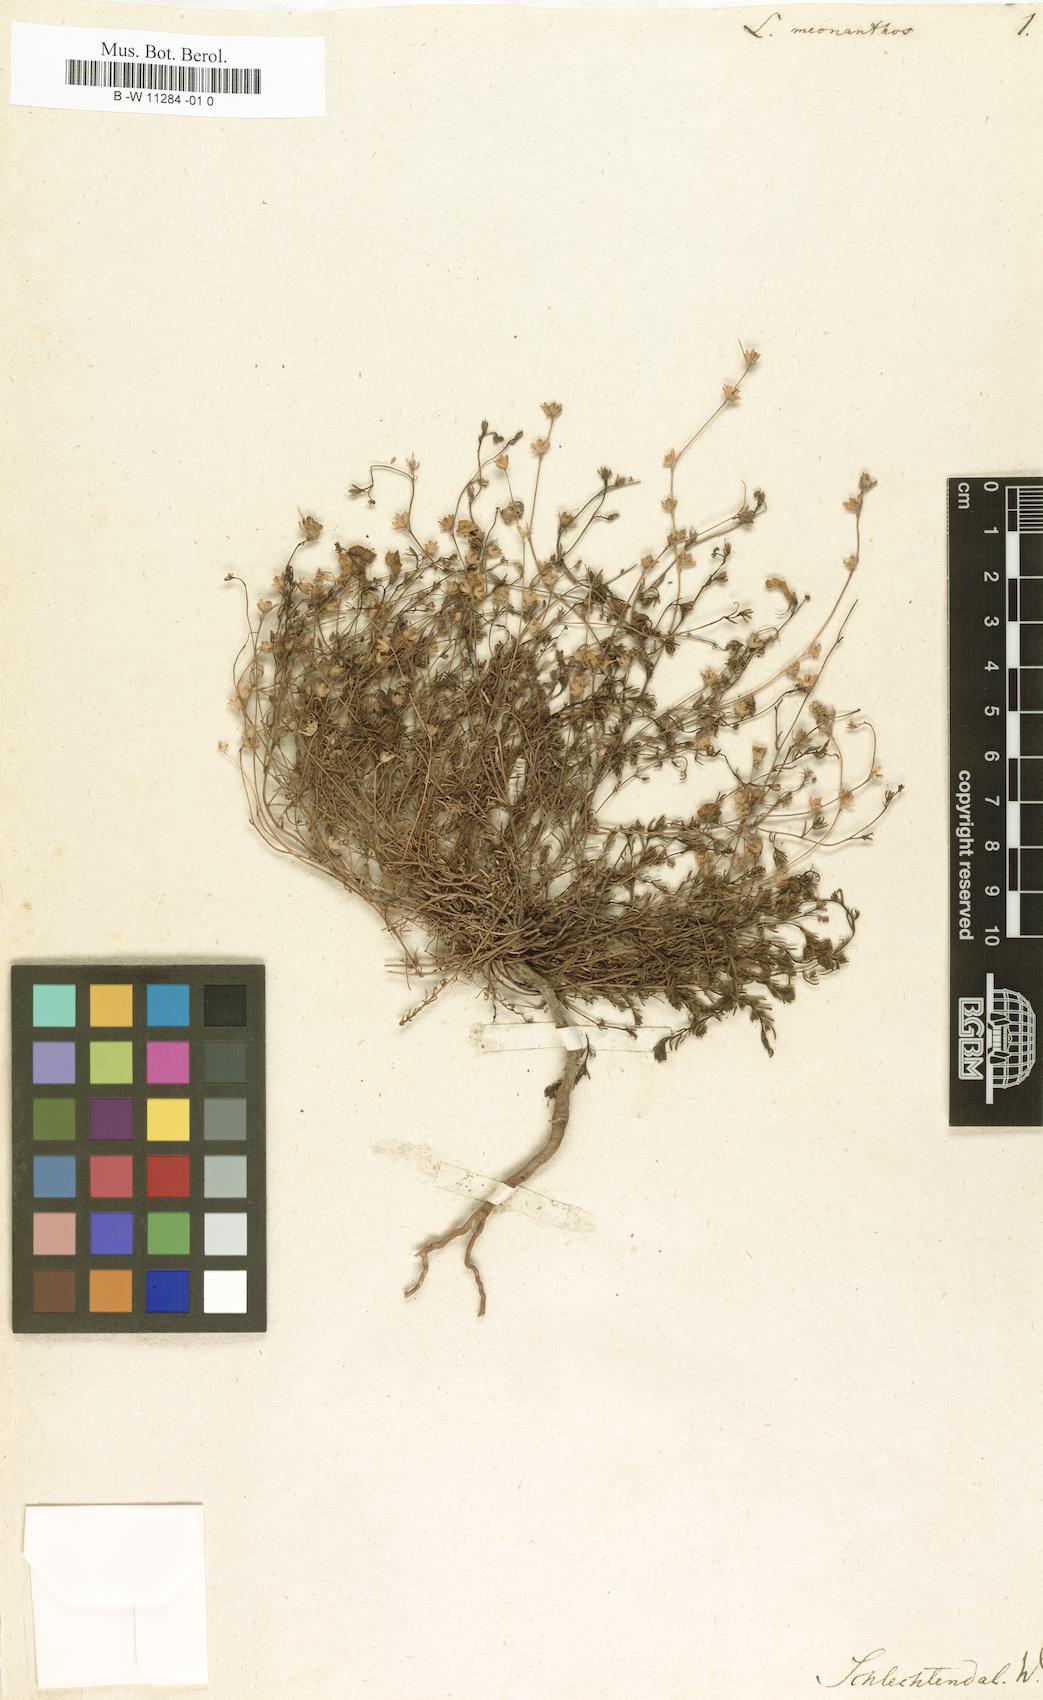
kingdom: Plantae
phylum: Tracheophyta
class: Magnoliopsida
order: Lamiales
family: Plantaginaceae
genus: Linaria
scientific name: Linaria spartea
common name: Ballast toadflax
